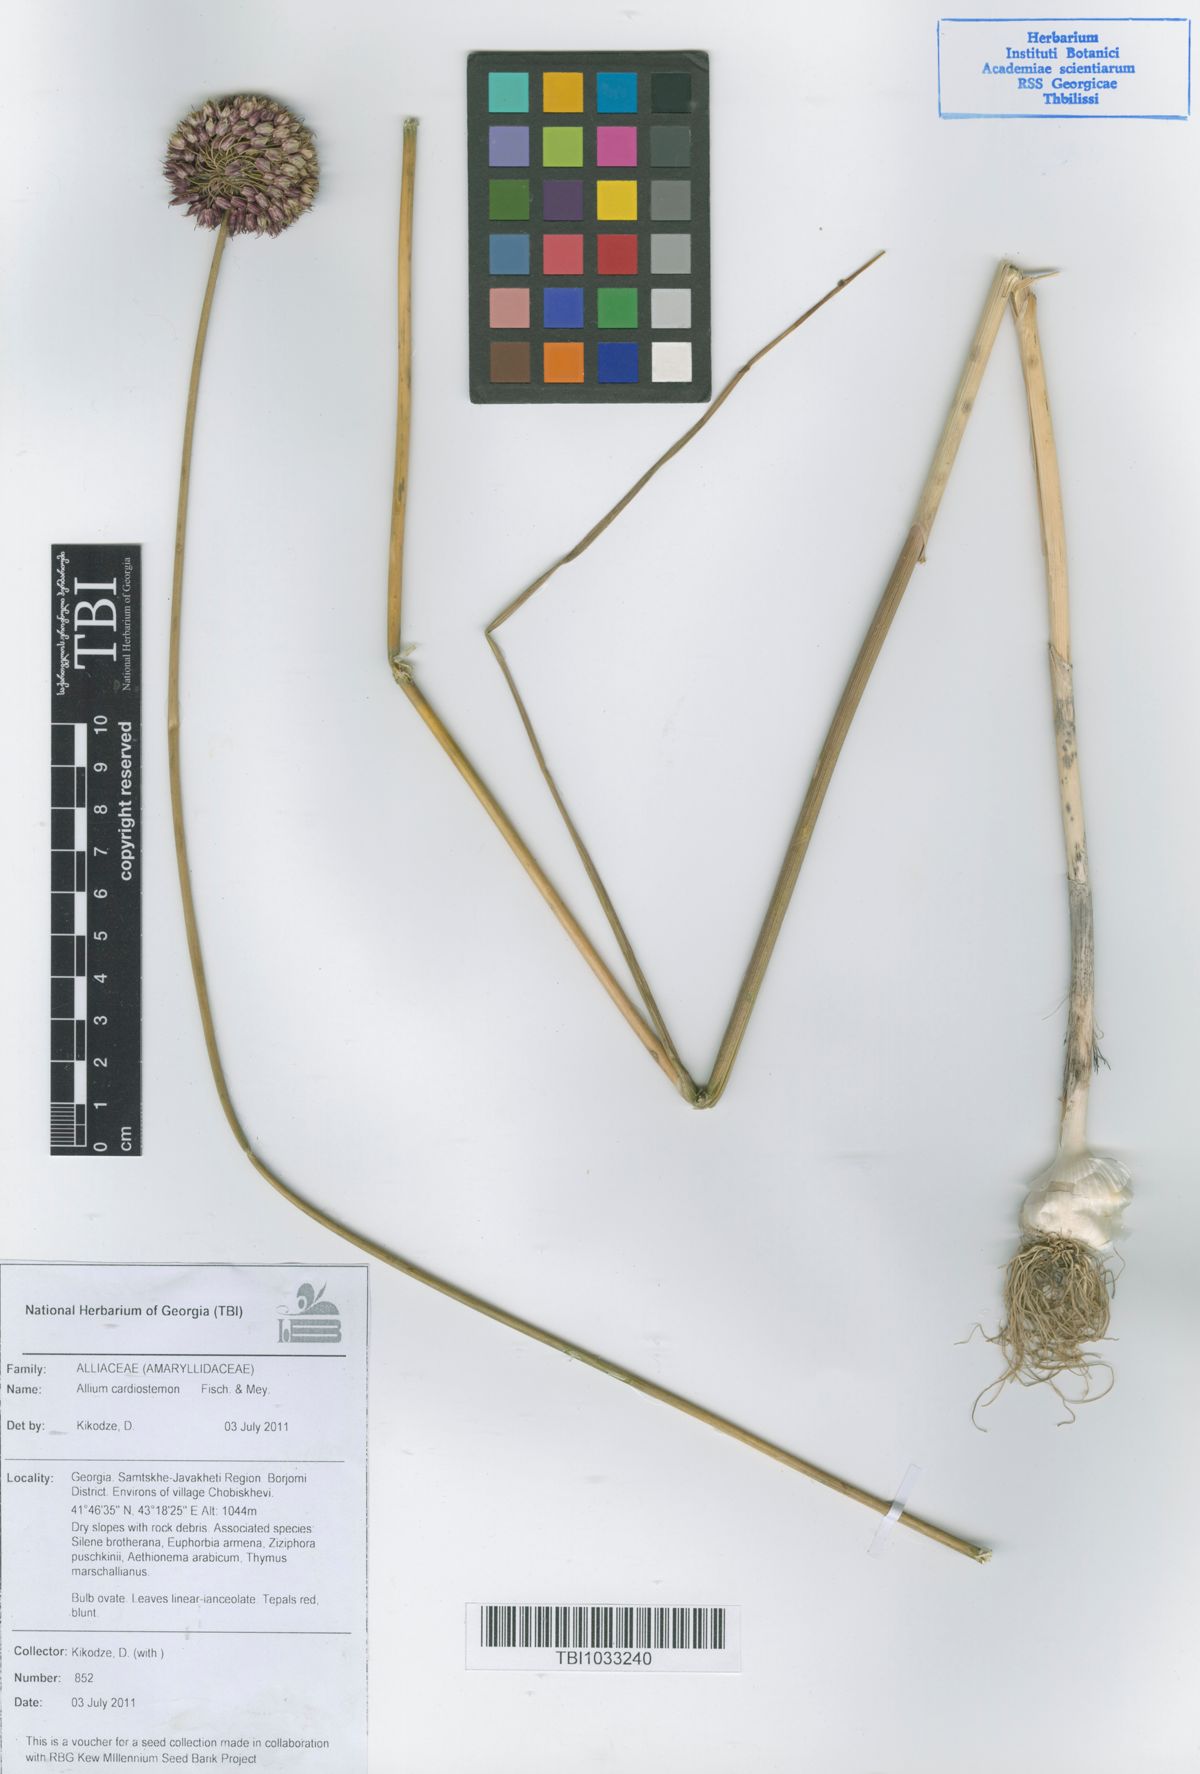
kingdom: Plantae
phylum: Tracheophyta
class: Liliopsida
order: Asparagales
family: Amaryllidaceae
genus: Allium
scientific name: Allium cardiostemon
